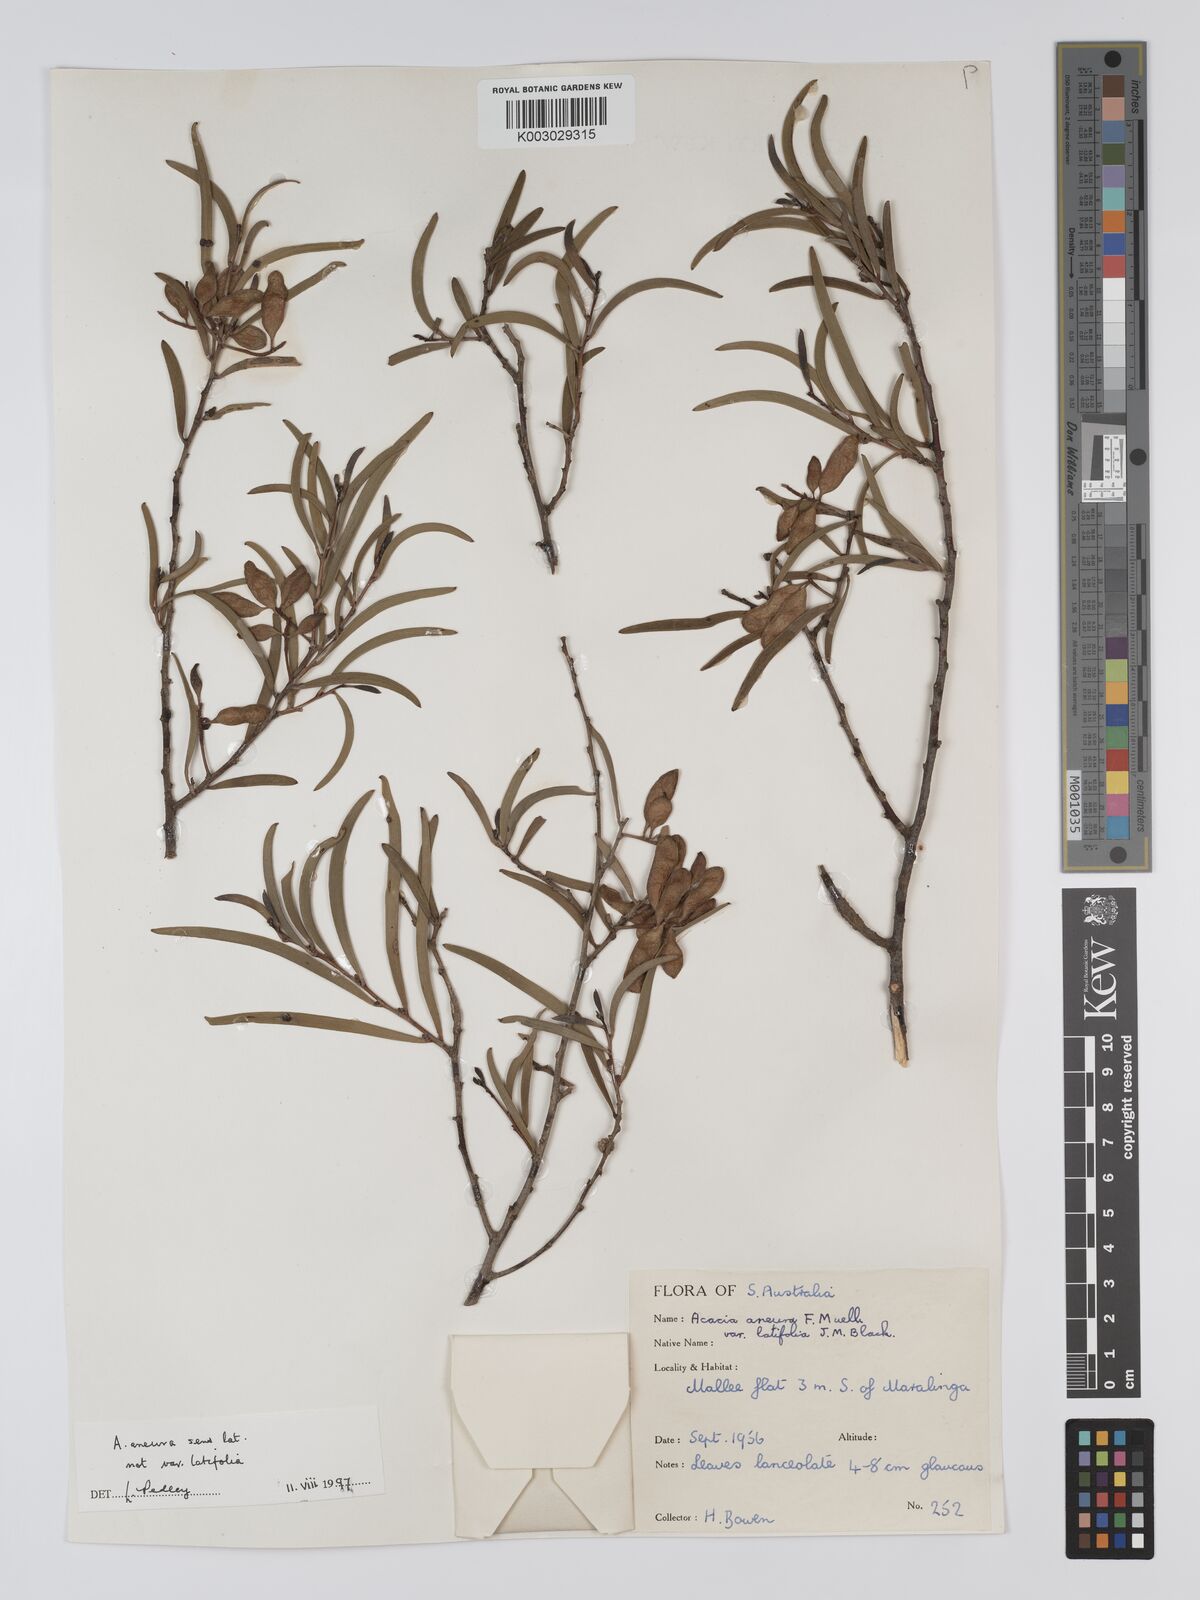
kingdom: Plantae
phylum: Tracheophyta
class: Magnoliopsida
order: Fabales
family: Fabaceae
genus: Acacia
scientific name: Acacia aneura
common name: Mulga
